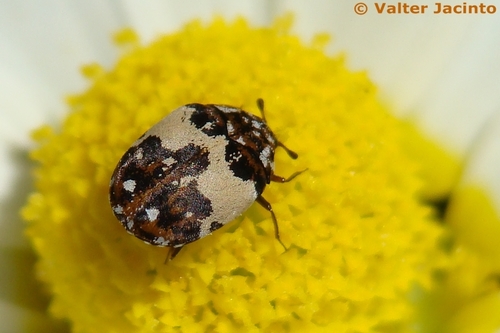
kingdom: Animalia
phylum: Arthropoda
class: Insecta
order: Coleoptera
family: Dermestidae
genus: Anthrenus
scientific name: Anthrenus pimpinellae
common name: Dermestid beetle
